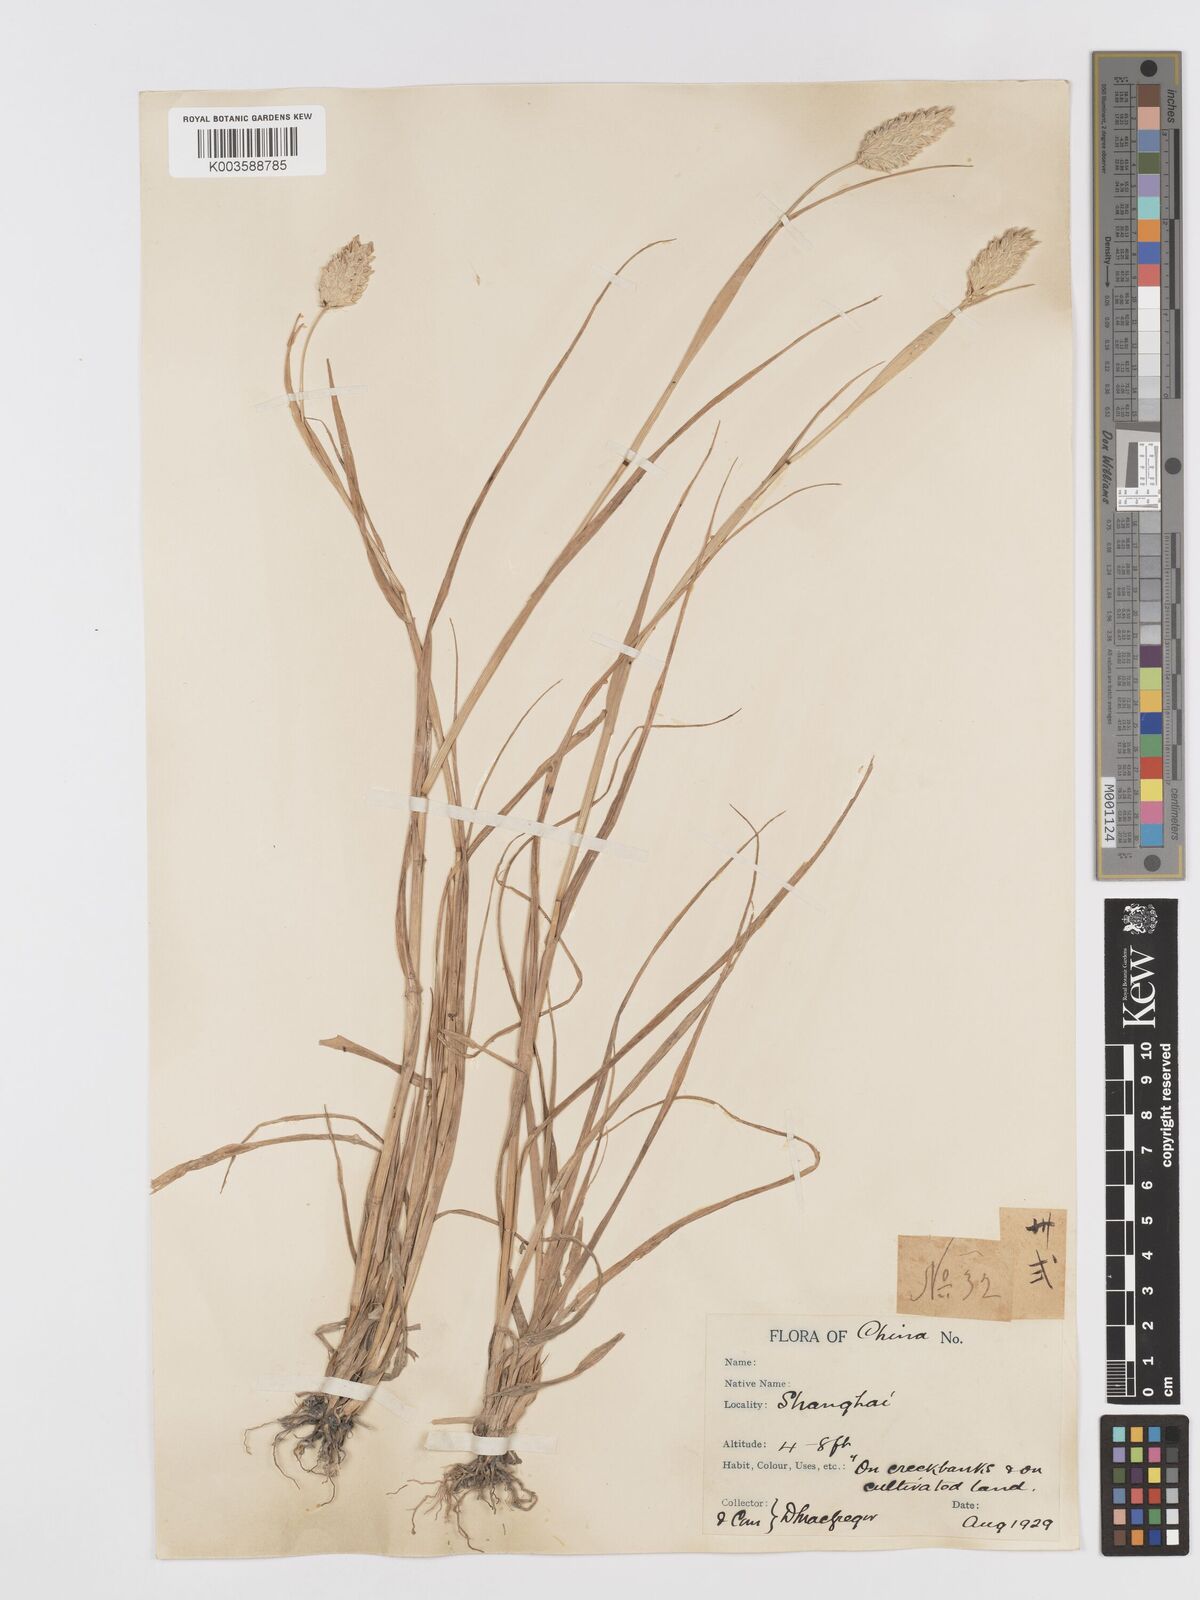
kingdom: Plantae
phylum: Tracheophyta
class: Liliopsida
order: Poales
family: Poaceae
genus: Phalaris
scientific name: Phalaris canariensis
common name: Annual canarygrass
